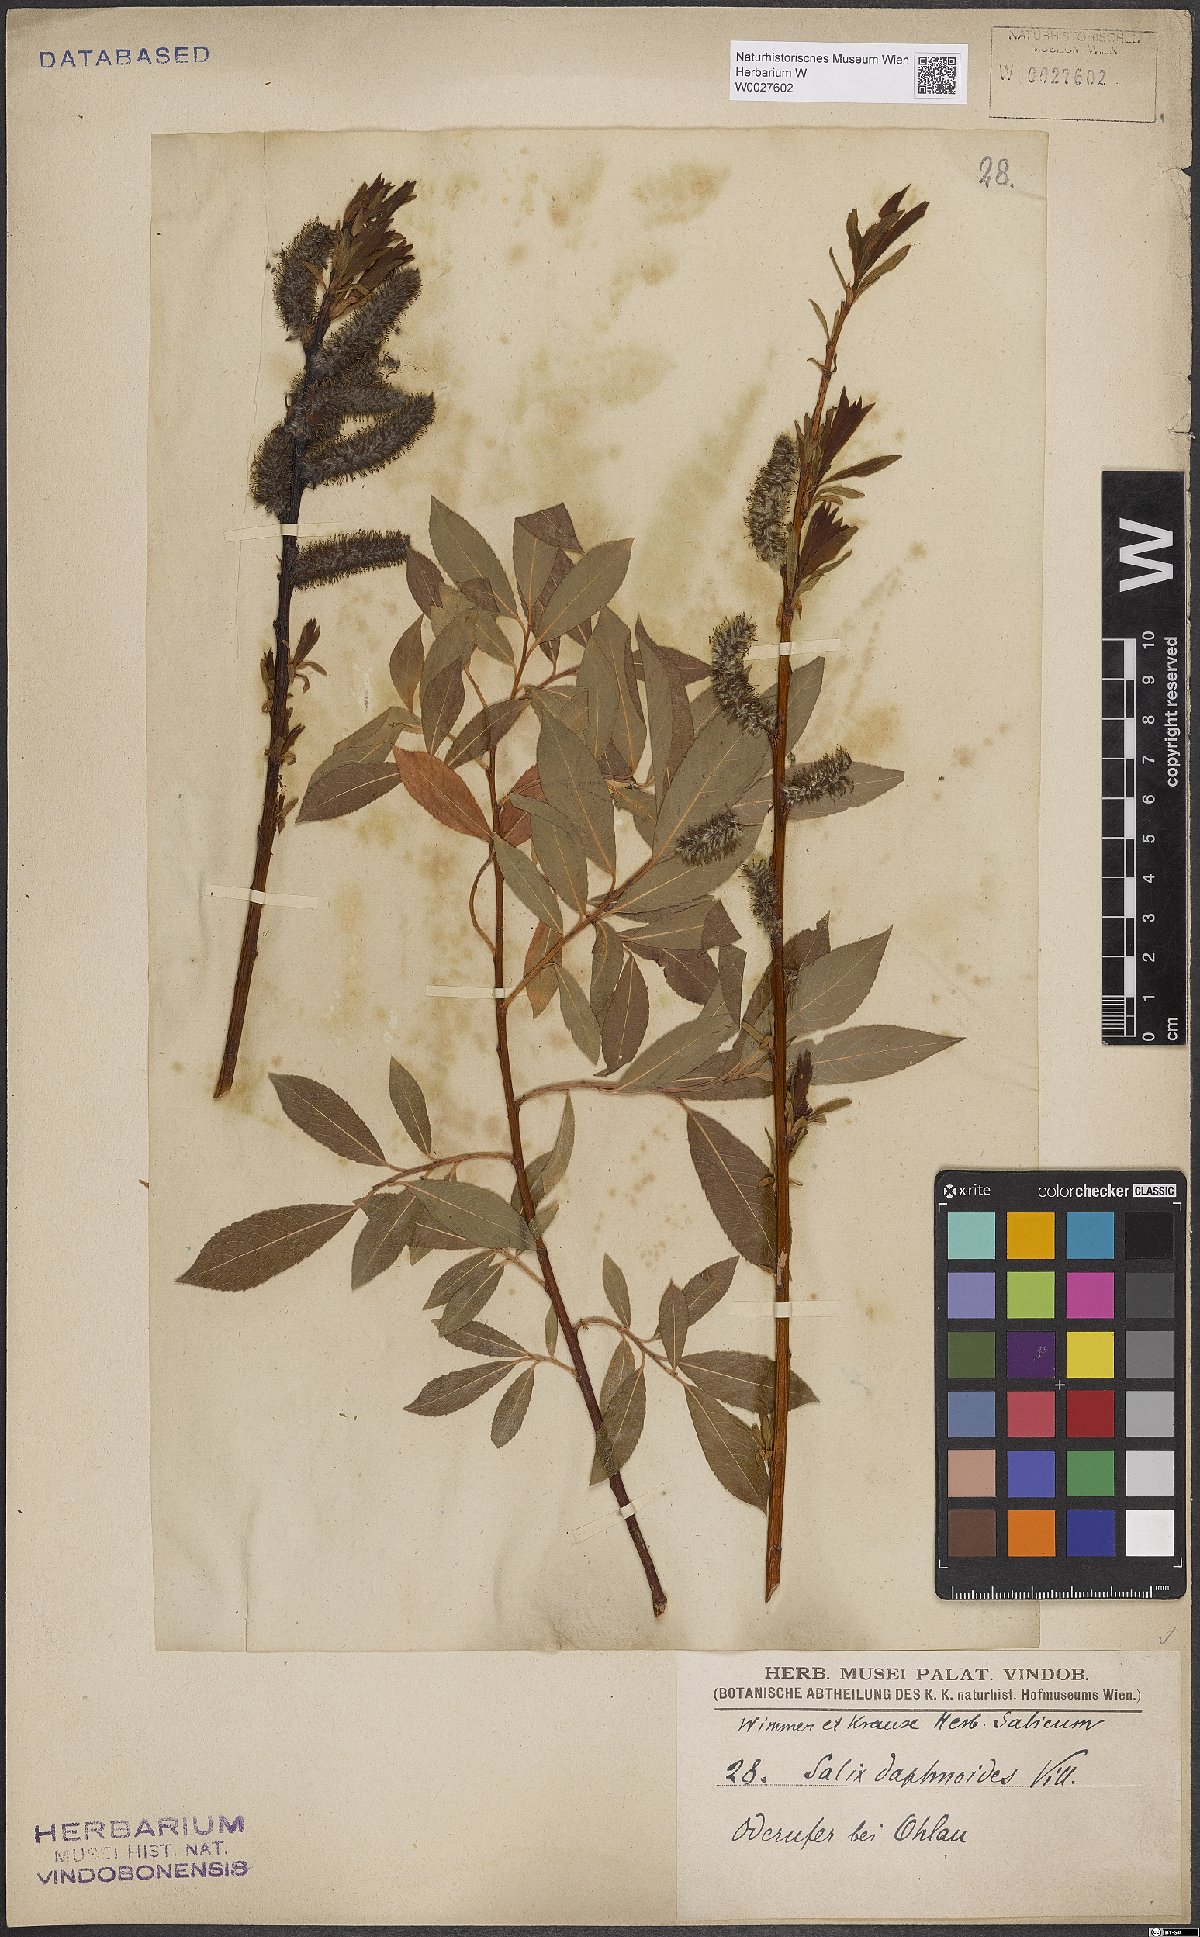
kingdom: Plantae
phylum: Tracheophyta
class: Magnoliopsida
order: Malpighiales
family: Salicaceae
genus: Salix
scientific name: Salix daphnoides
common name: European violet-willow
